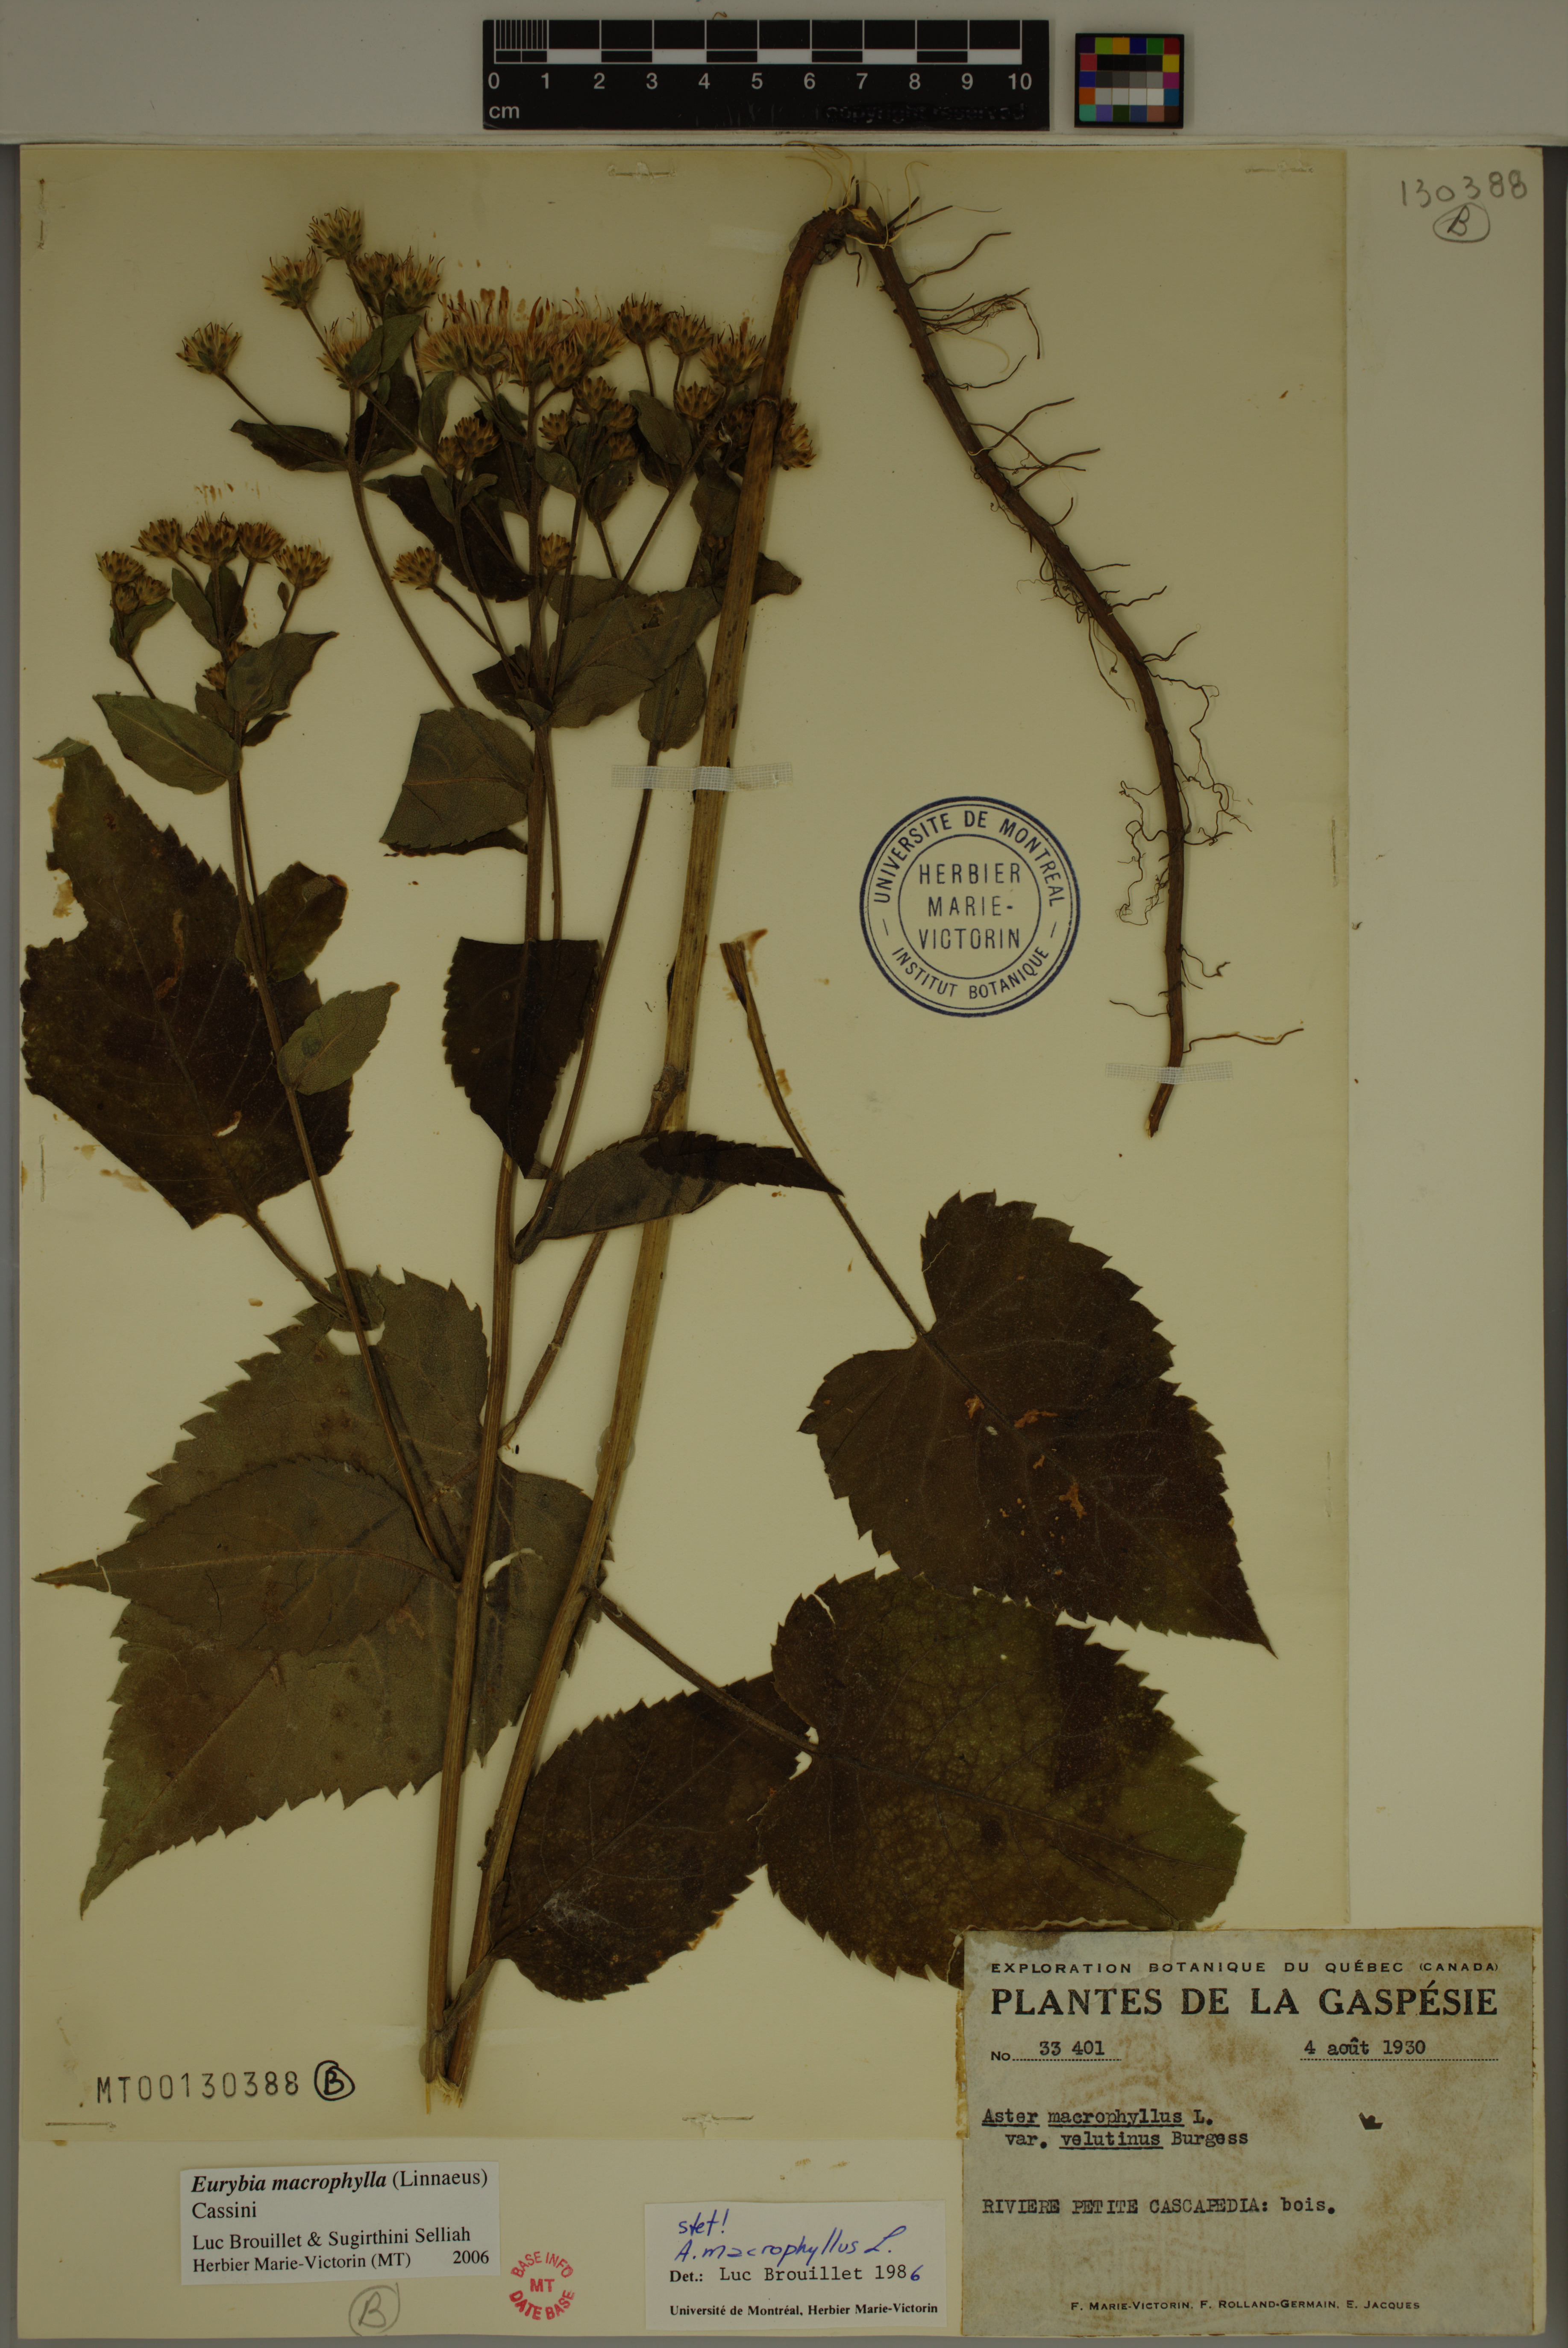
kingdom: Plantae
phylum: Tracheophyta
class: Magnoliopsida
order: Asterales
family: Asteraceae
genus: Eurybia
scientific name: Eurybia macrophylla
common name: Big-leaved aster
